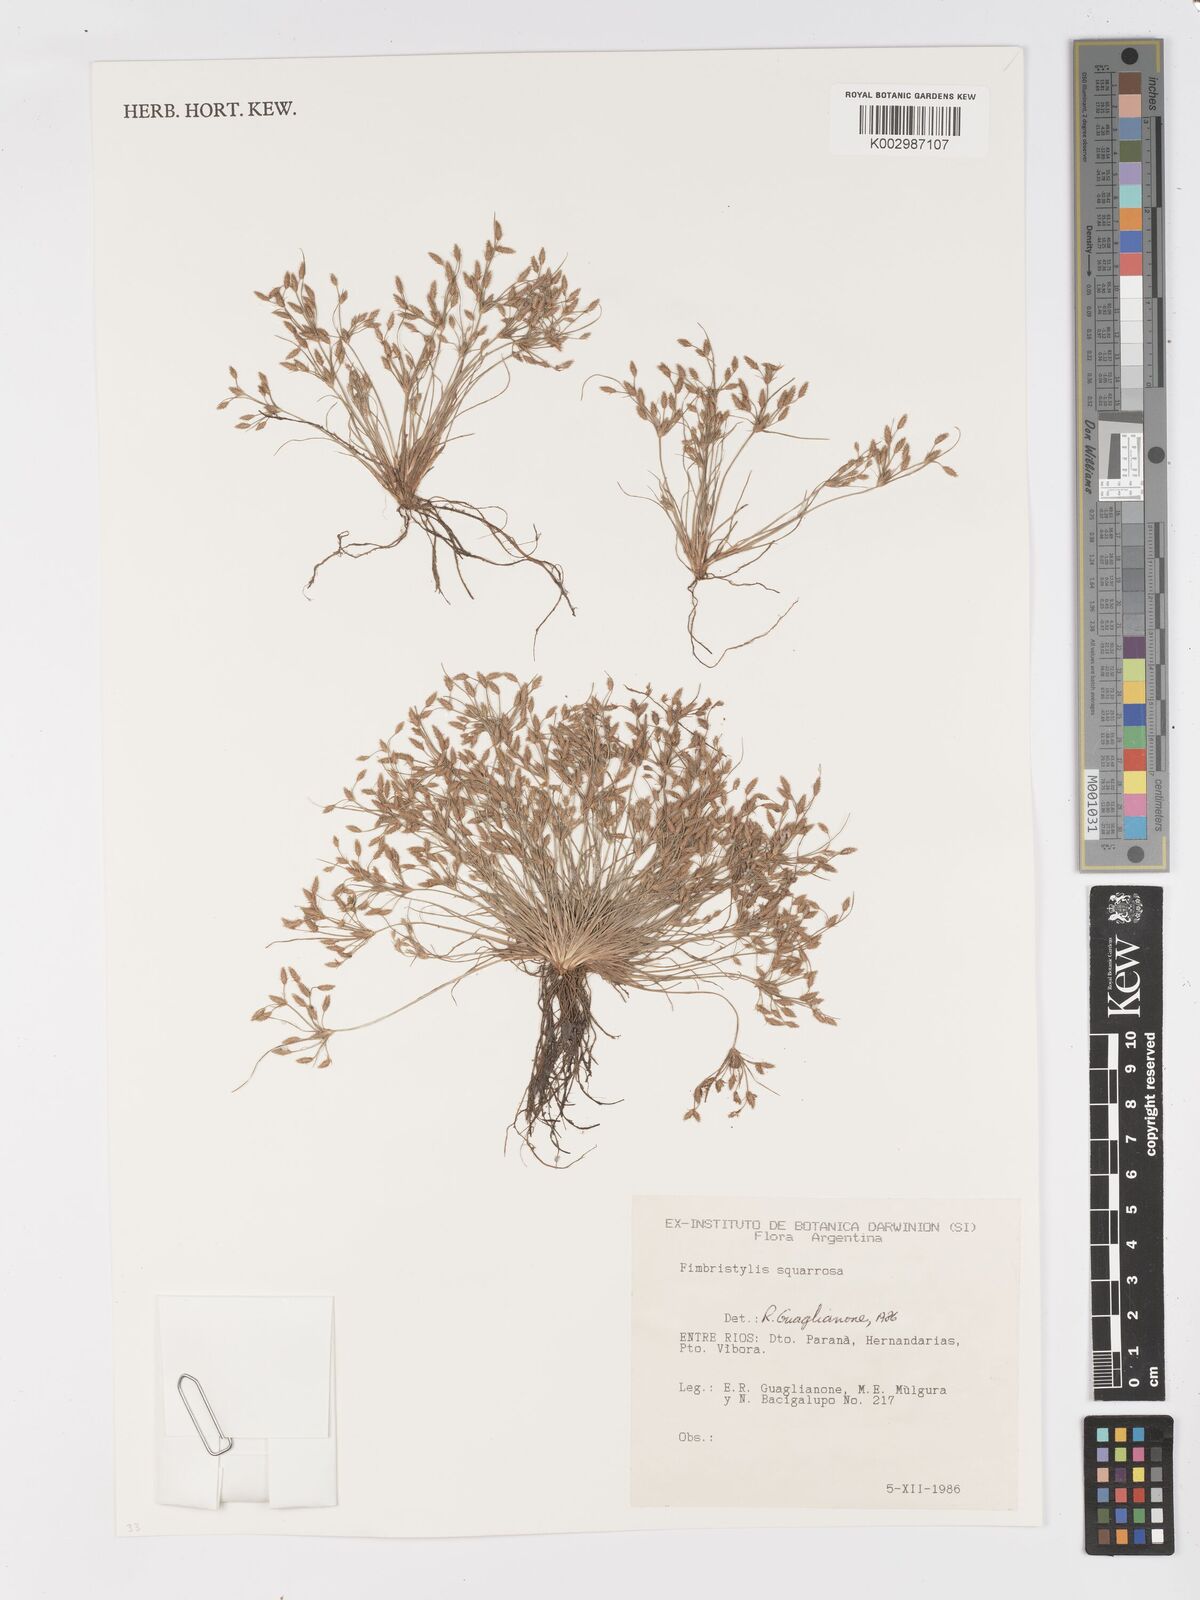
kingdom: Plantae
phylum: Tracheophyta
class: Liliopsida
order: Poales
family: Cyperaceae
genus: Fimbristylis
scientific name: Fimbristylis squarrosa
